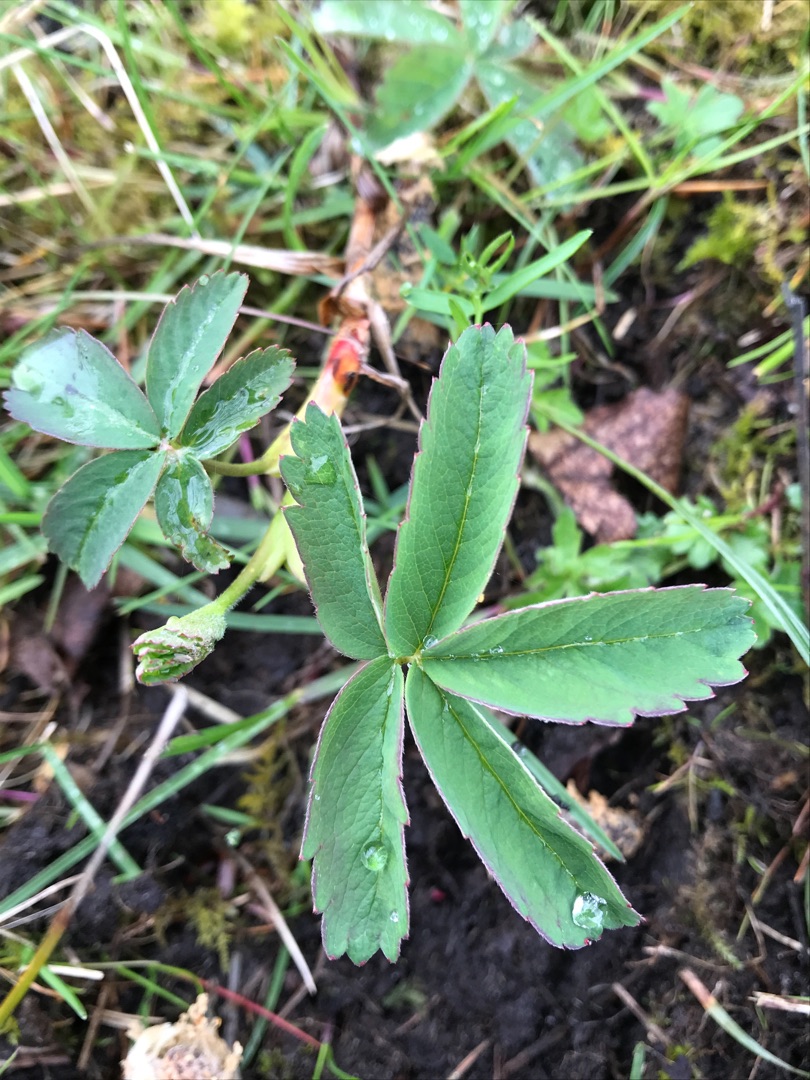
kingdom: Plantae
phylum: Tracheophyta
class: Magnoliopsida
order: Rosales
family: Rosaceae
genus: Comarum
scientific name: Comarum palustre
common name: Kragefod
